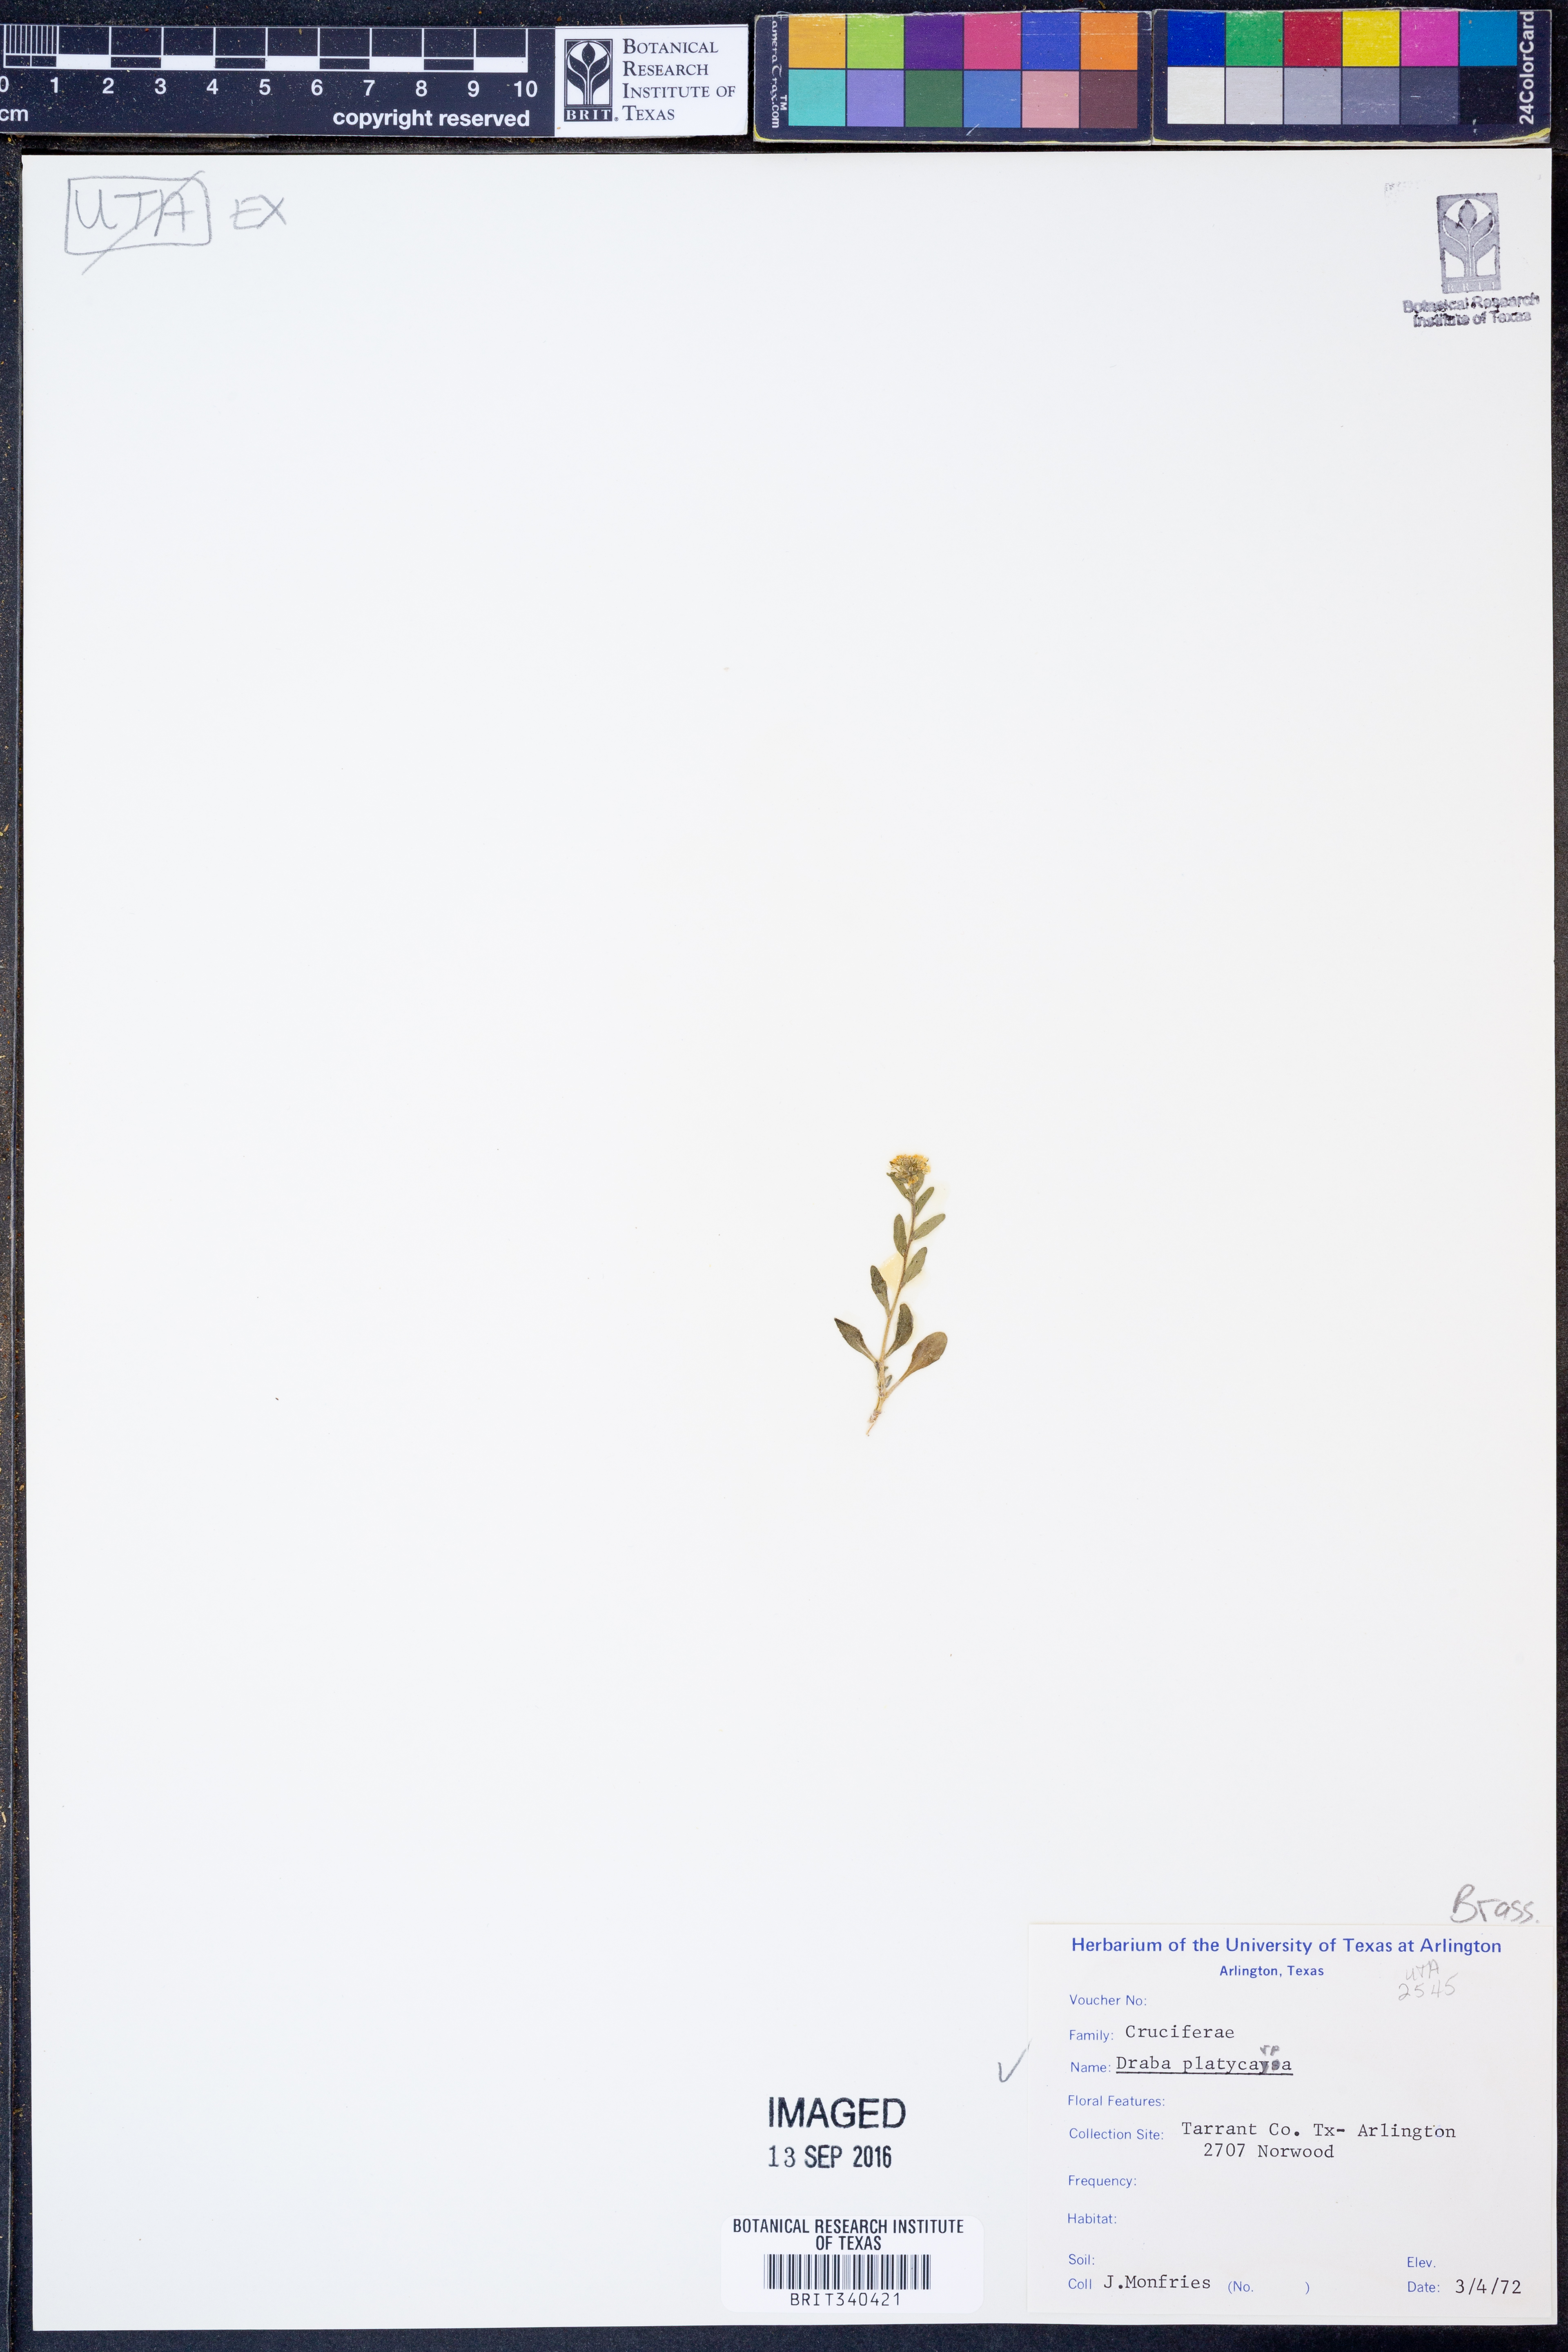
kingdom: Plantae
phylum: Tracheophyta
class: Magnoliopsida
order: Brassicales
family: Brassicaceae
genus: Tomostima
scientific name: Tomostima platycarpa
